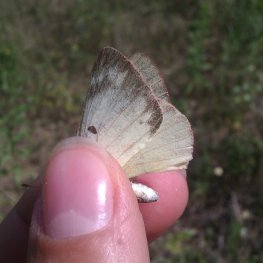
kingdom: Animalia
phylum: Arthropoda
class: Insecta
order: Lepidoptera
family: Pieridae
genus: Colias
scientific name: Colias philodice
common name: Clouded Sulphur
